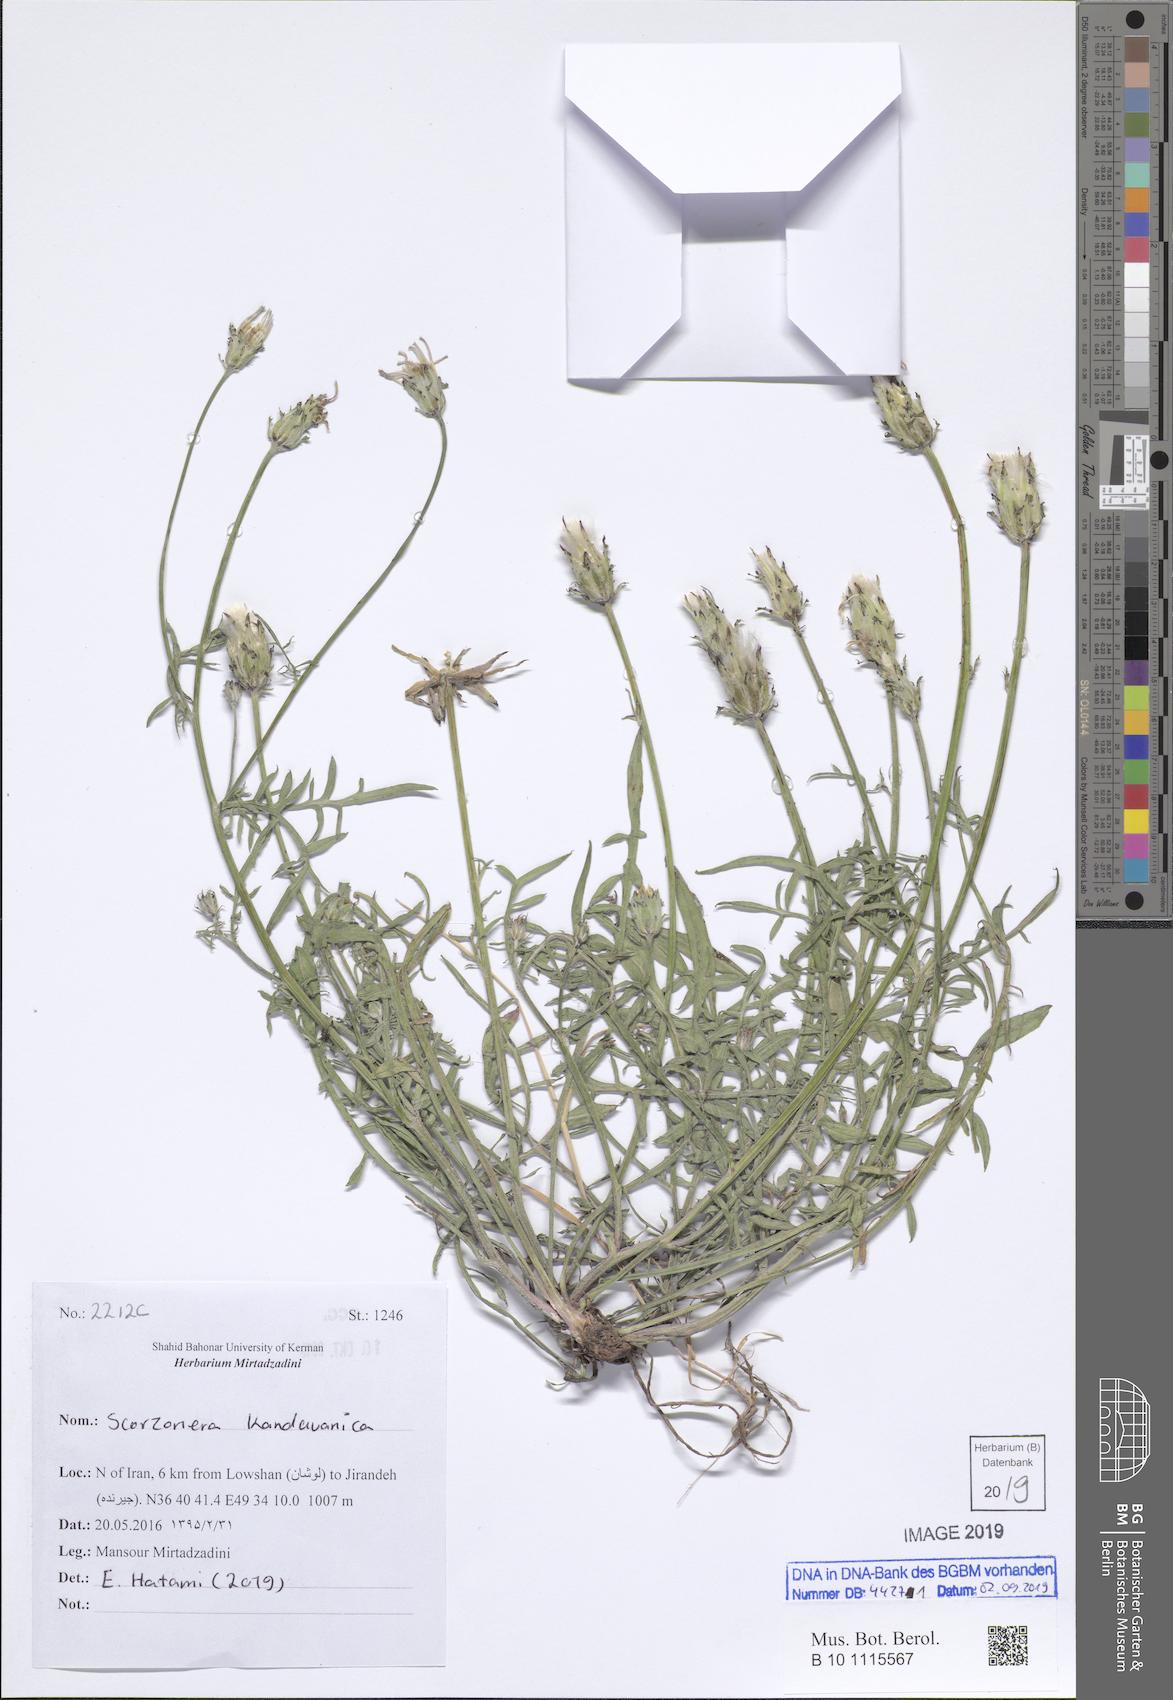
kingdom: Plantae
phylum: Tracheophyta
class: Magnoliopsida
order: Asterales
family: Asteraceae
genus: Scorzonera
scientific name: Scorzonera kandavanica
